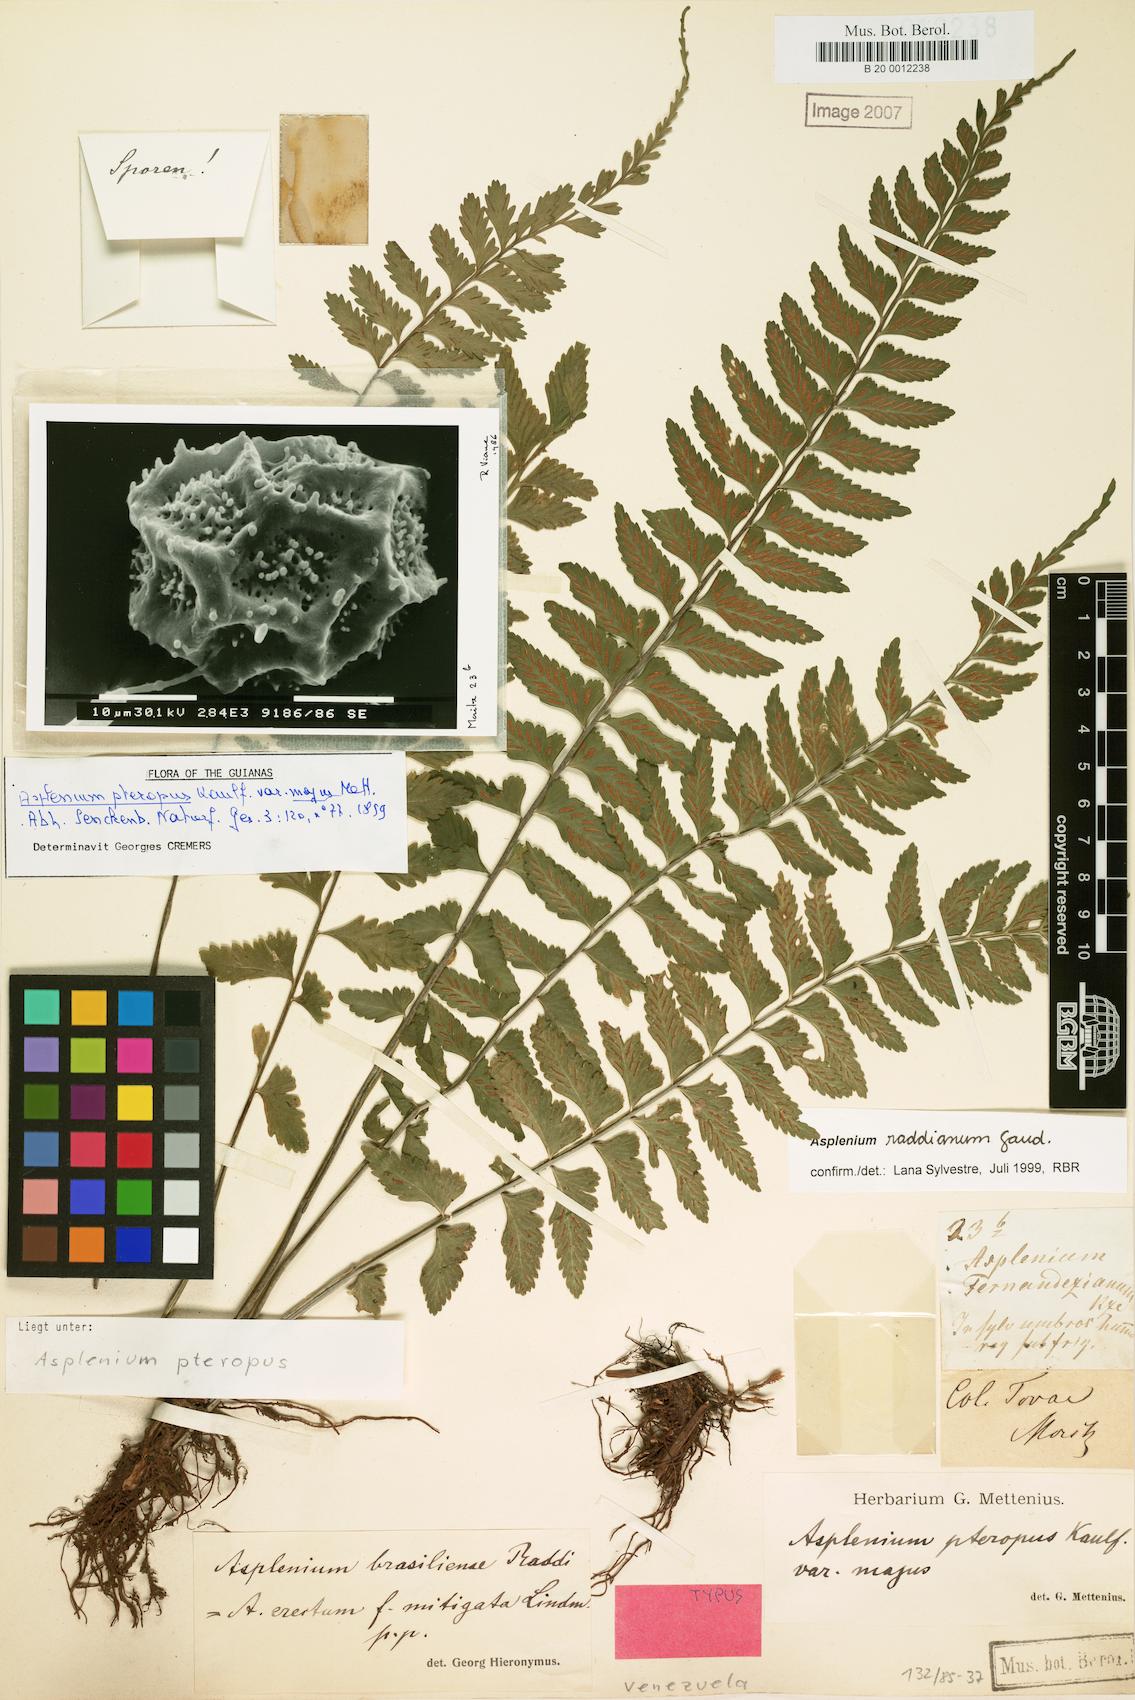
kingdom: Plantae
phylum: Tracheophyta
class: Polypodiopsida
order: Polypodiales
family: Aspleniaceae
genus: Asplenium
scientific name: Asplenium raddianum
